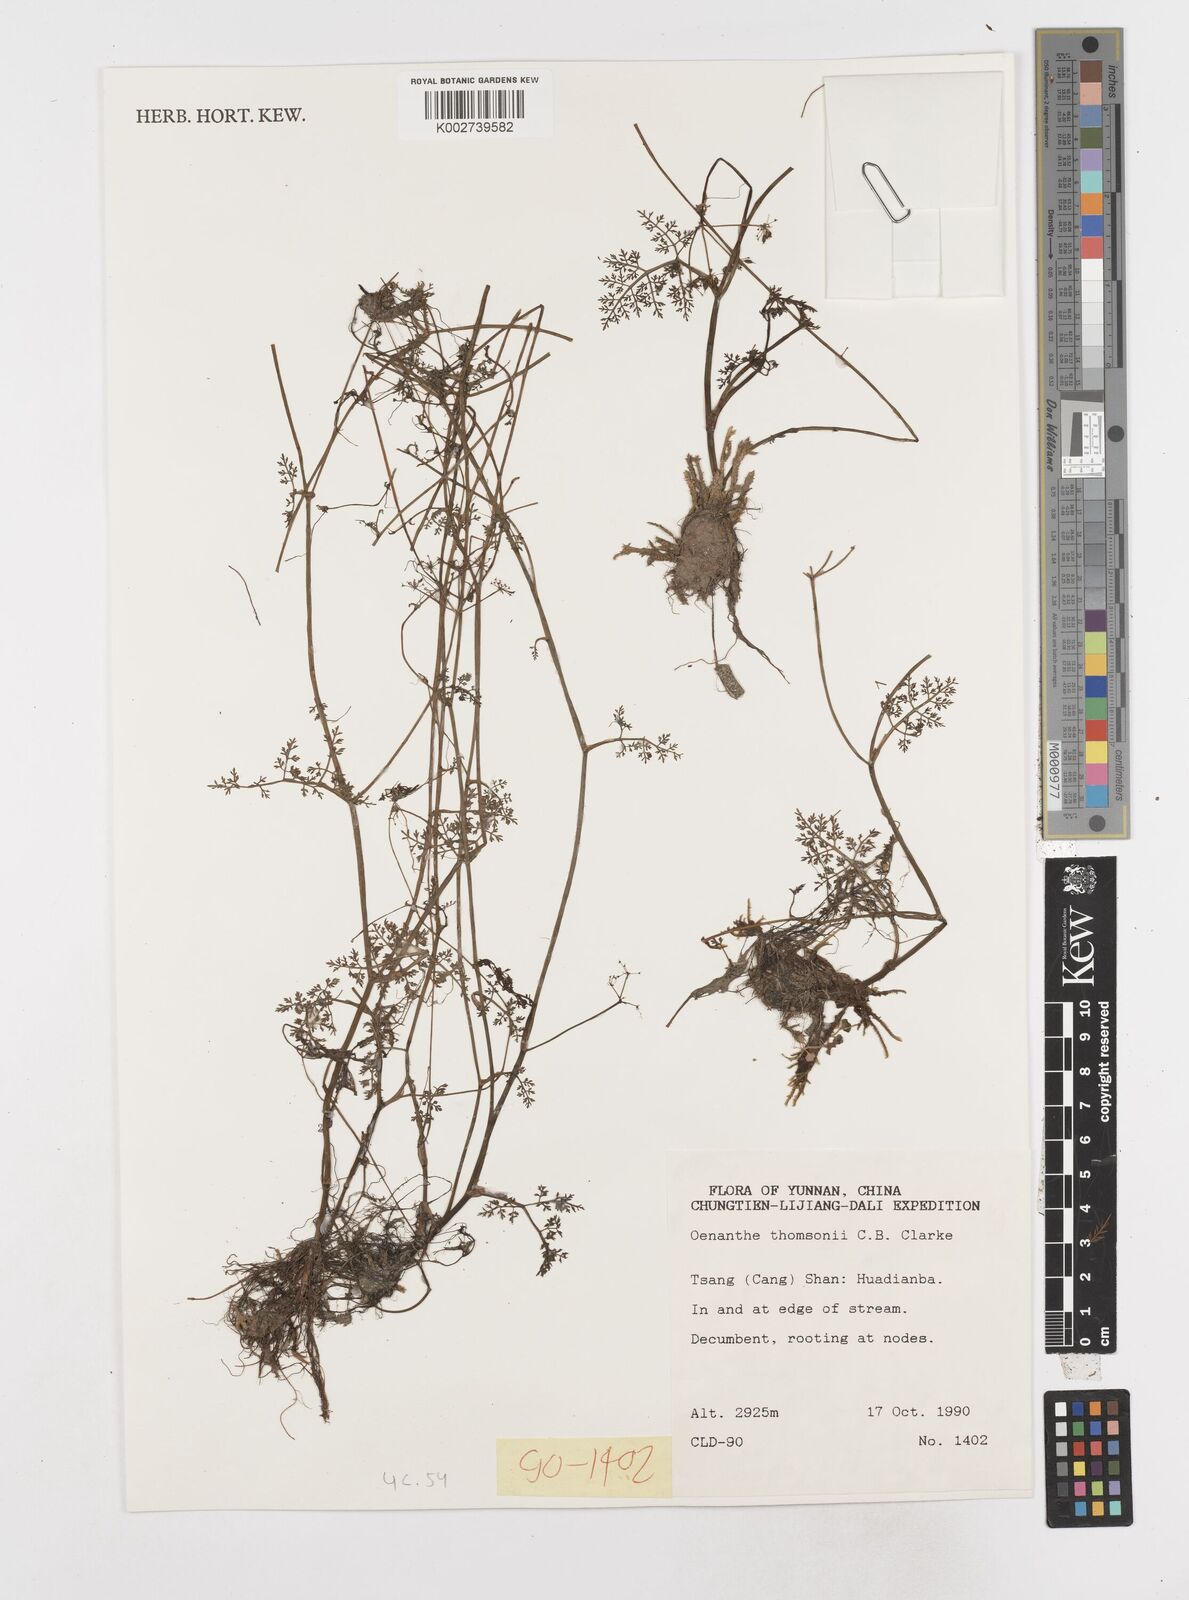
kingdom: Plantae
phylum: Tracheophyta
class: Magnoliopsida
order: Apiales
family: Apiaceae
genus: Oenanthe
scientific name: Oenanthe thomsonii
